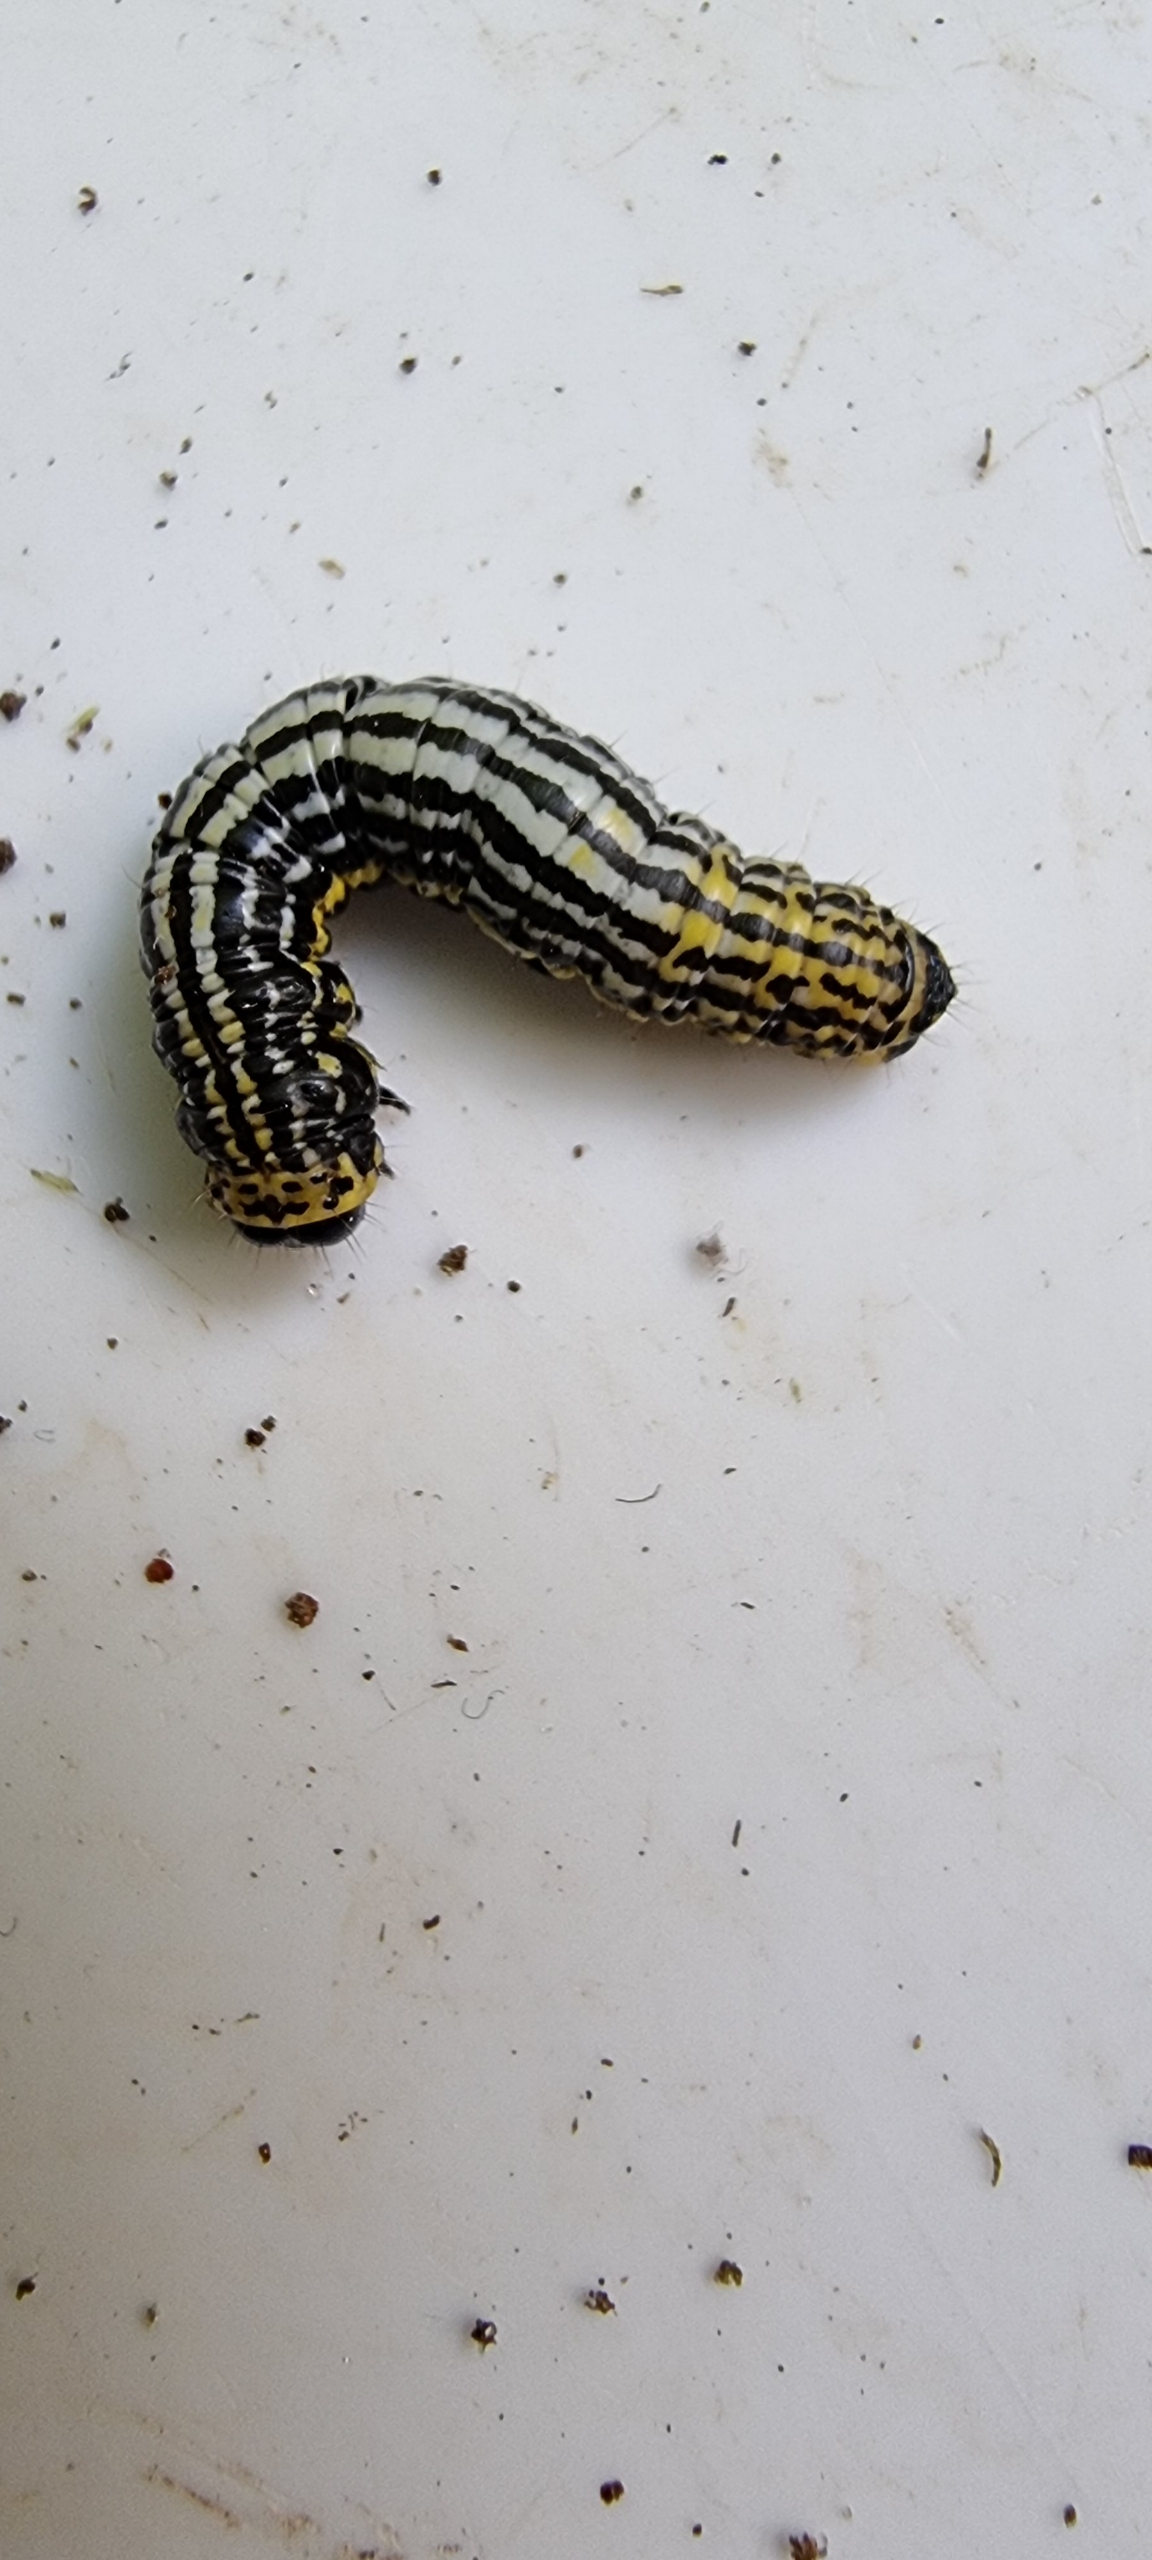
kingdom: Animalia
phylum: Arthropoda
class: Insecta
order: Lepidoptera
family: Geometridae
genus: Abraxas
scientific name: Abraxas sylvata
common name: Elmemåler
